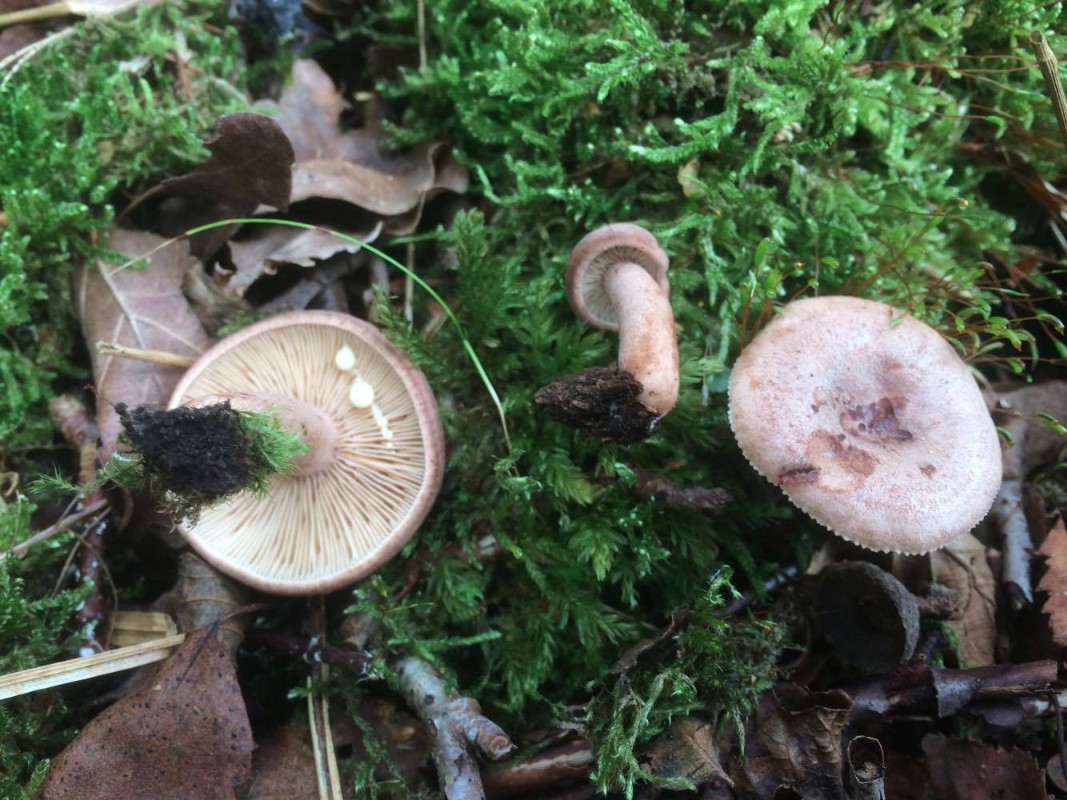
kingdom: Fungi
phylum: Basidiomycota
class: Agaricomycetes
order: Russulales
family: Russulaceae
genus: Lactarius
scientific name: Lactarius quietus
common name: ege-mælkehat
